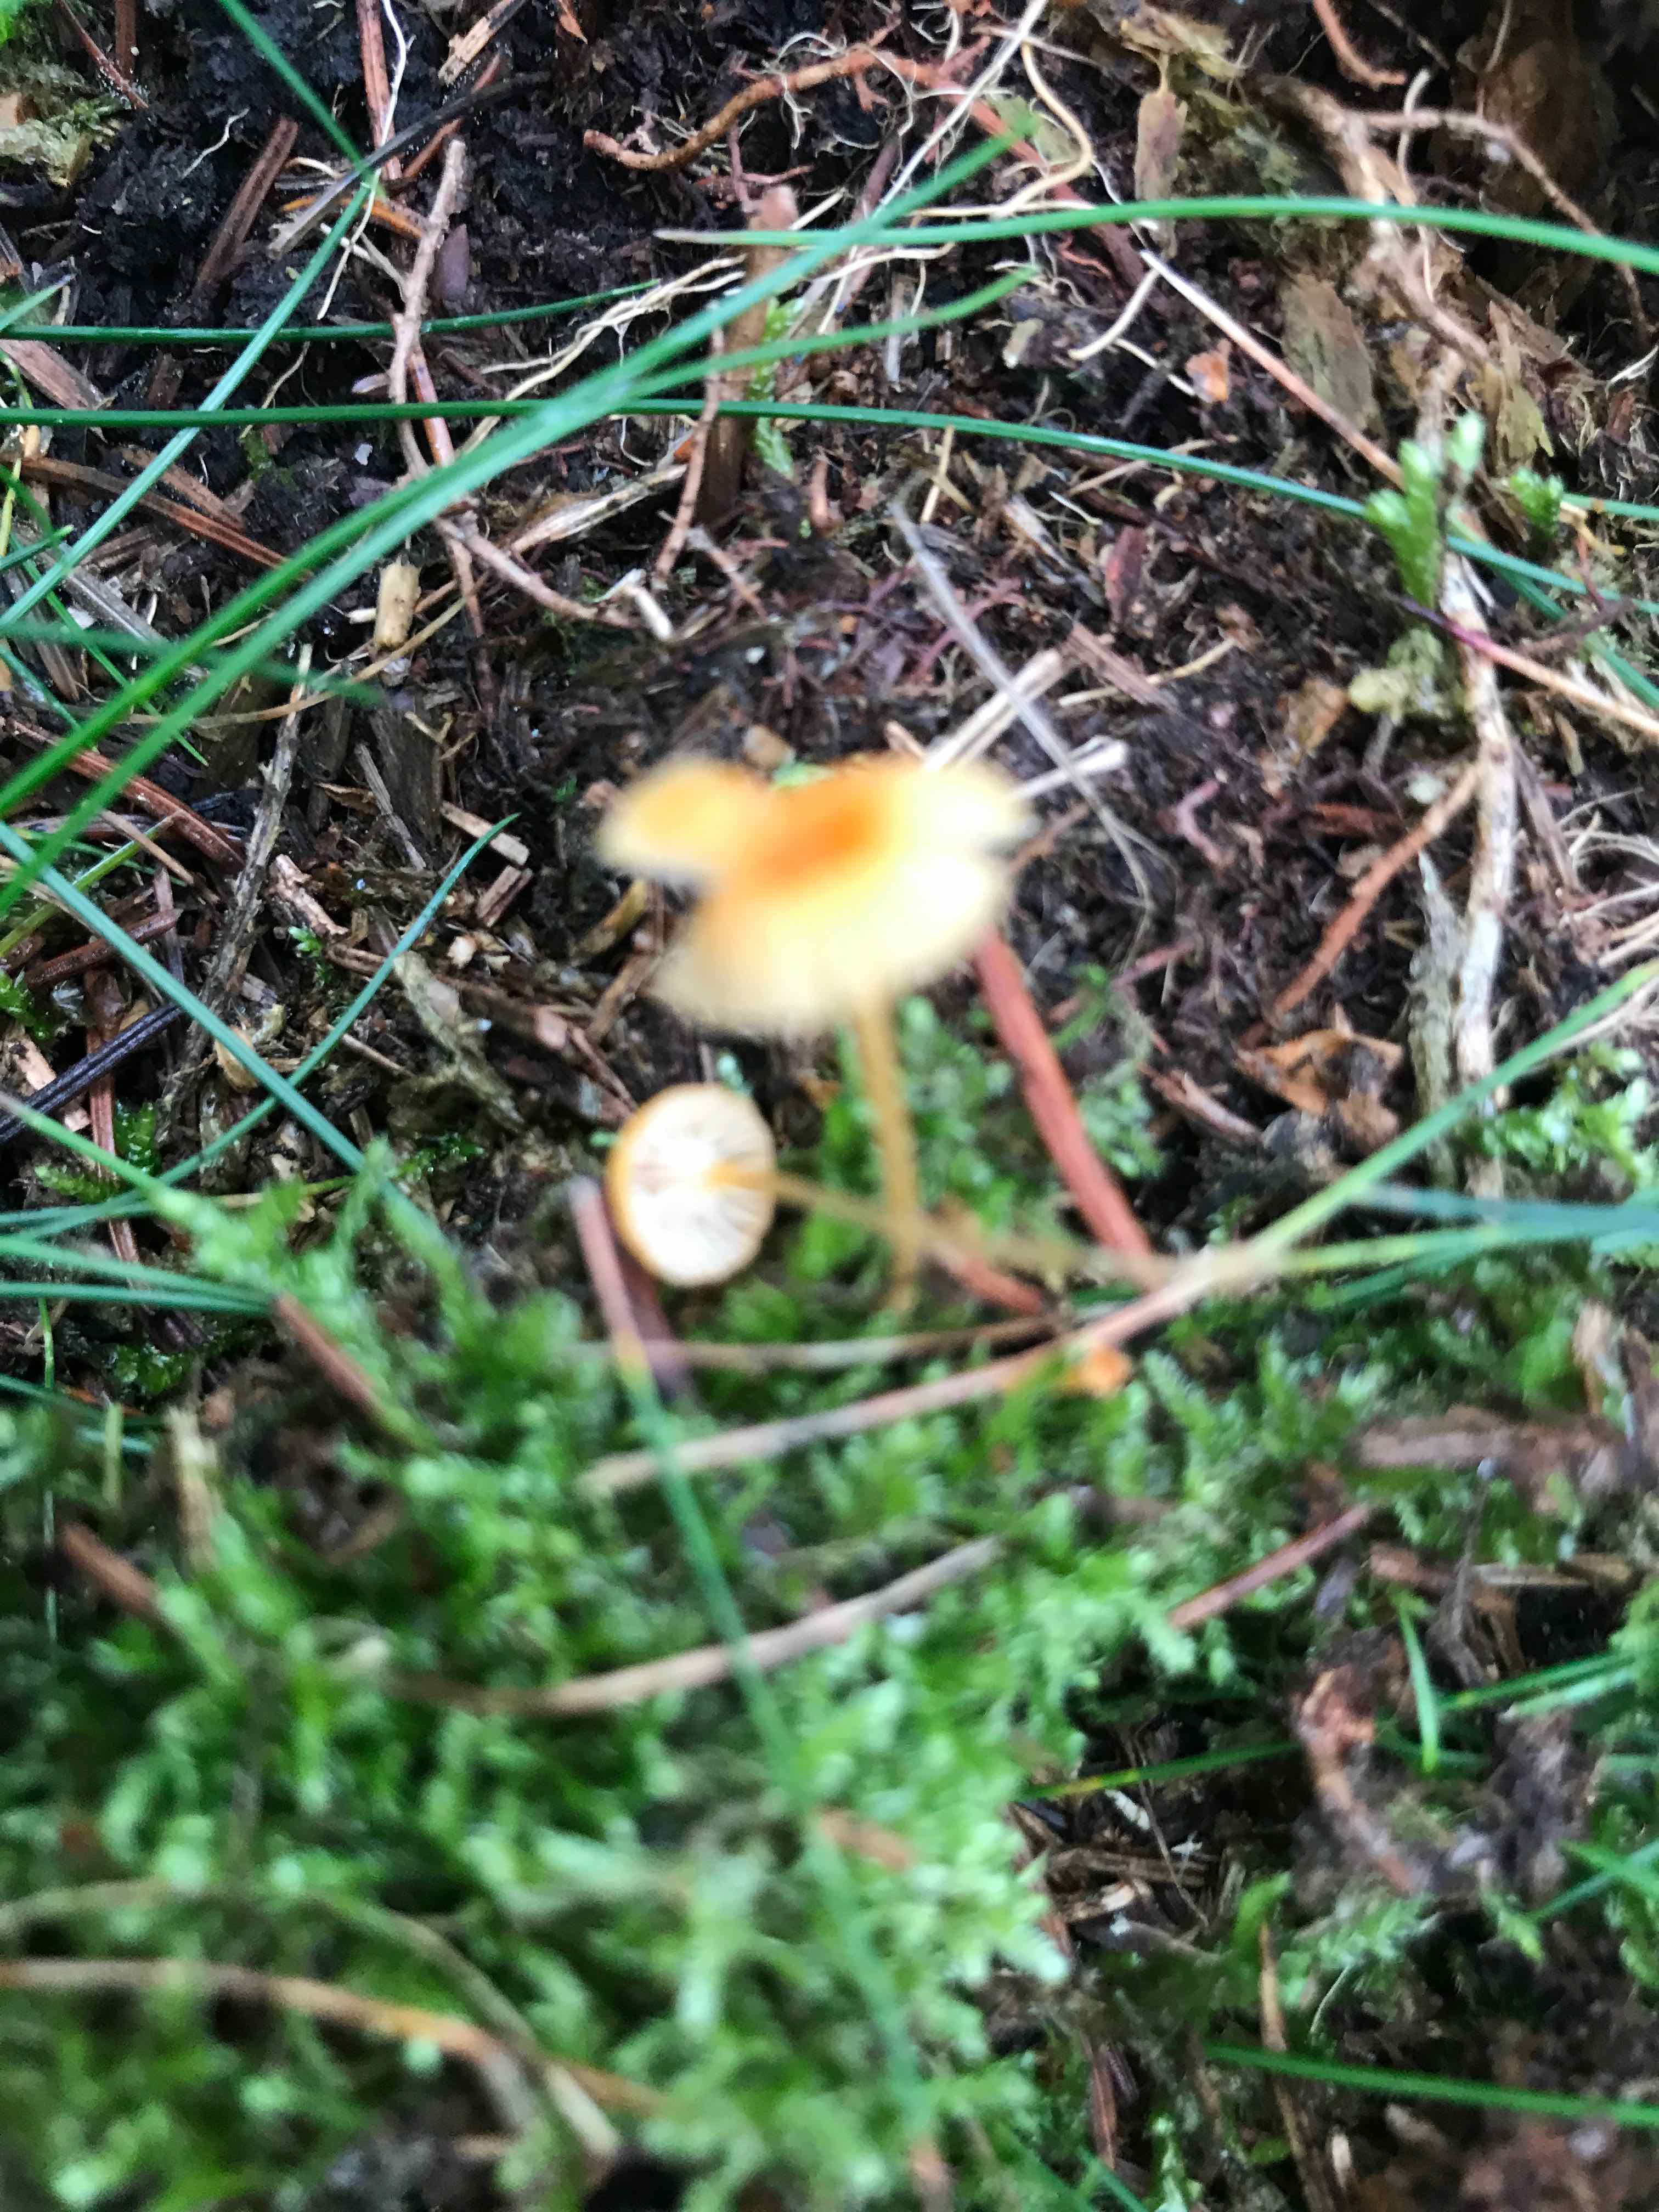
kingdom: Fungi
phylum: Basidiomycota
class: Agaricomycetes
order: Hymenochaetales
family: Rickenellaceae
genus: Rickenella
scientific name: Rickenella fibula
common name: orange mosnavlehat
